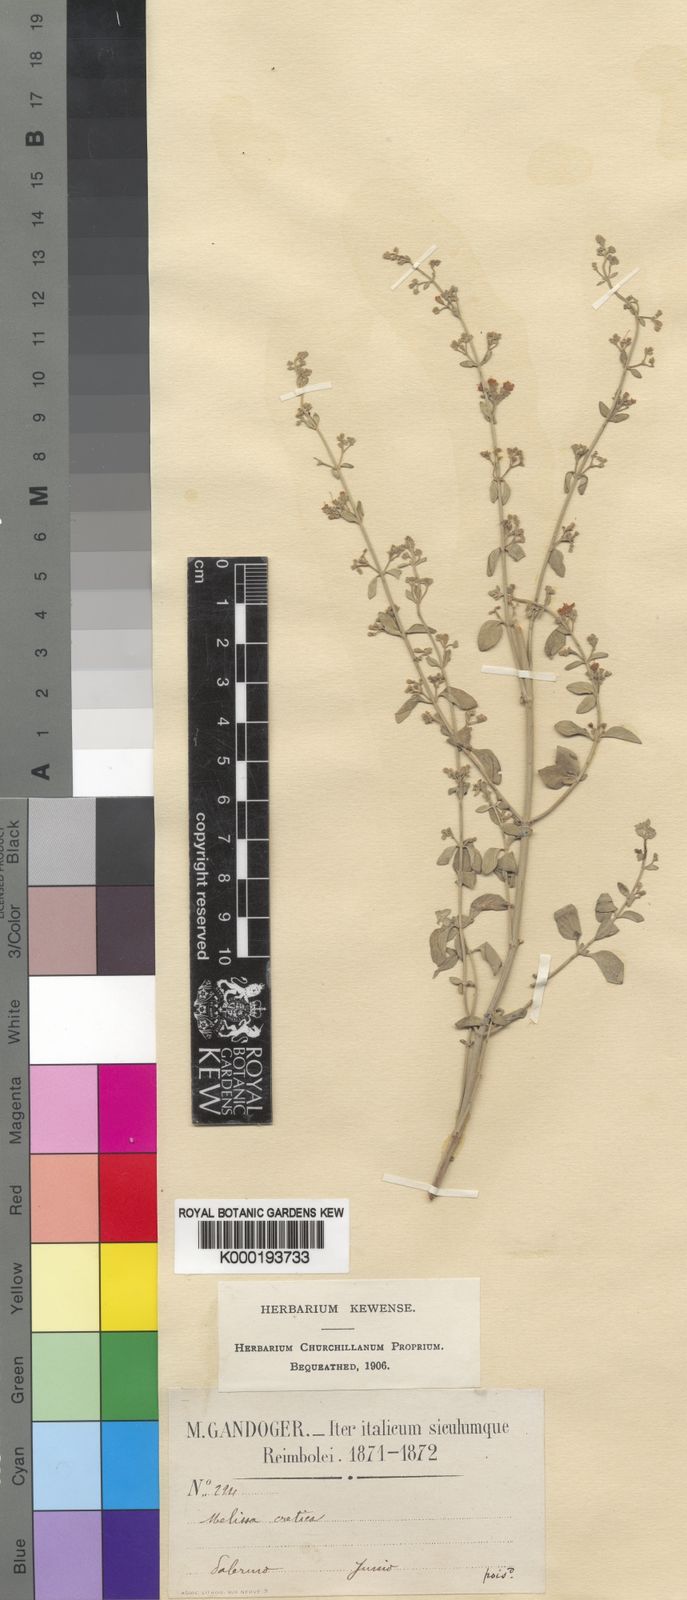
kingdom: Plantae
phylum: Tracheophyta
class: Magnoliopsida
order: Lamiales
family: Lamiaceae
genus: Clinopodium
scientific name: Clinopodium creticum
